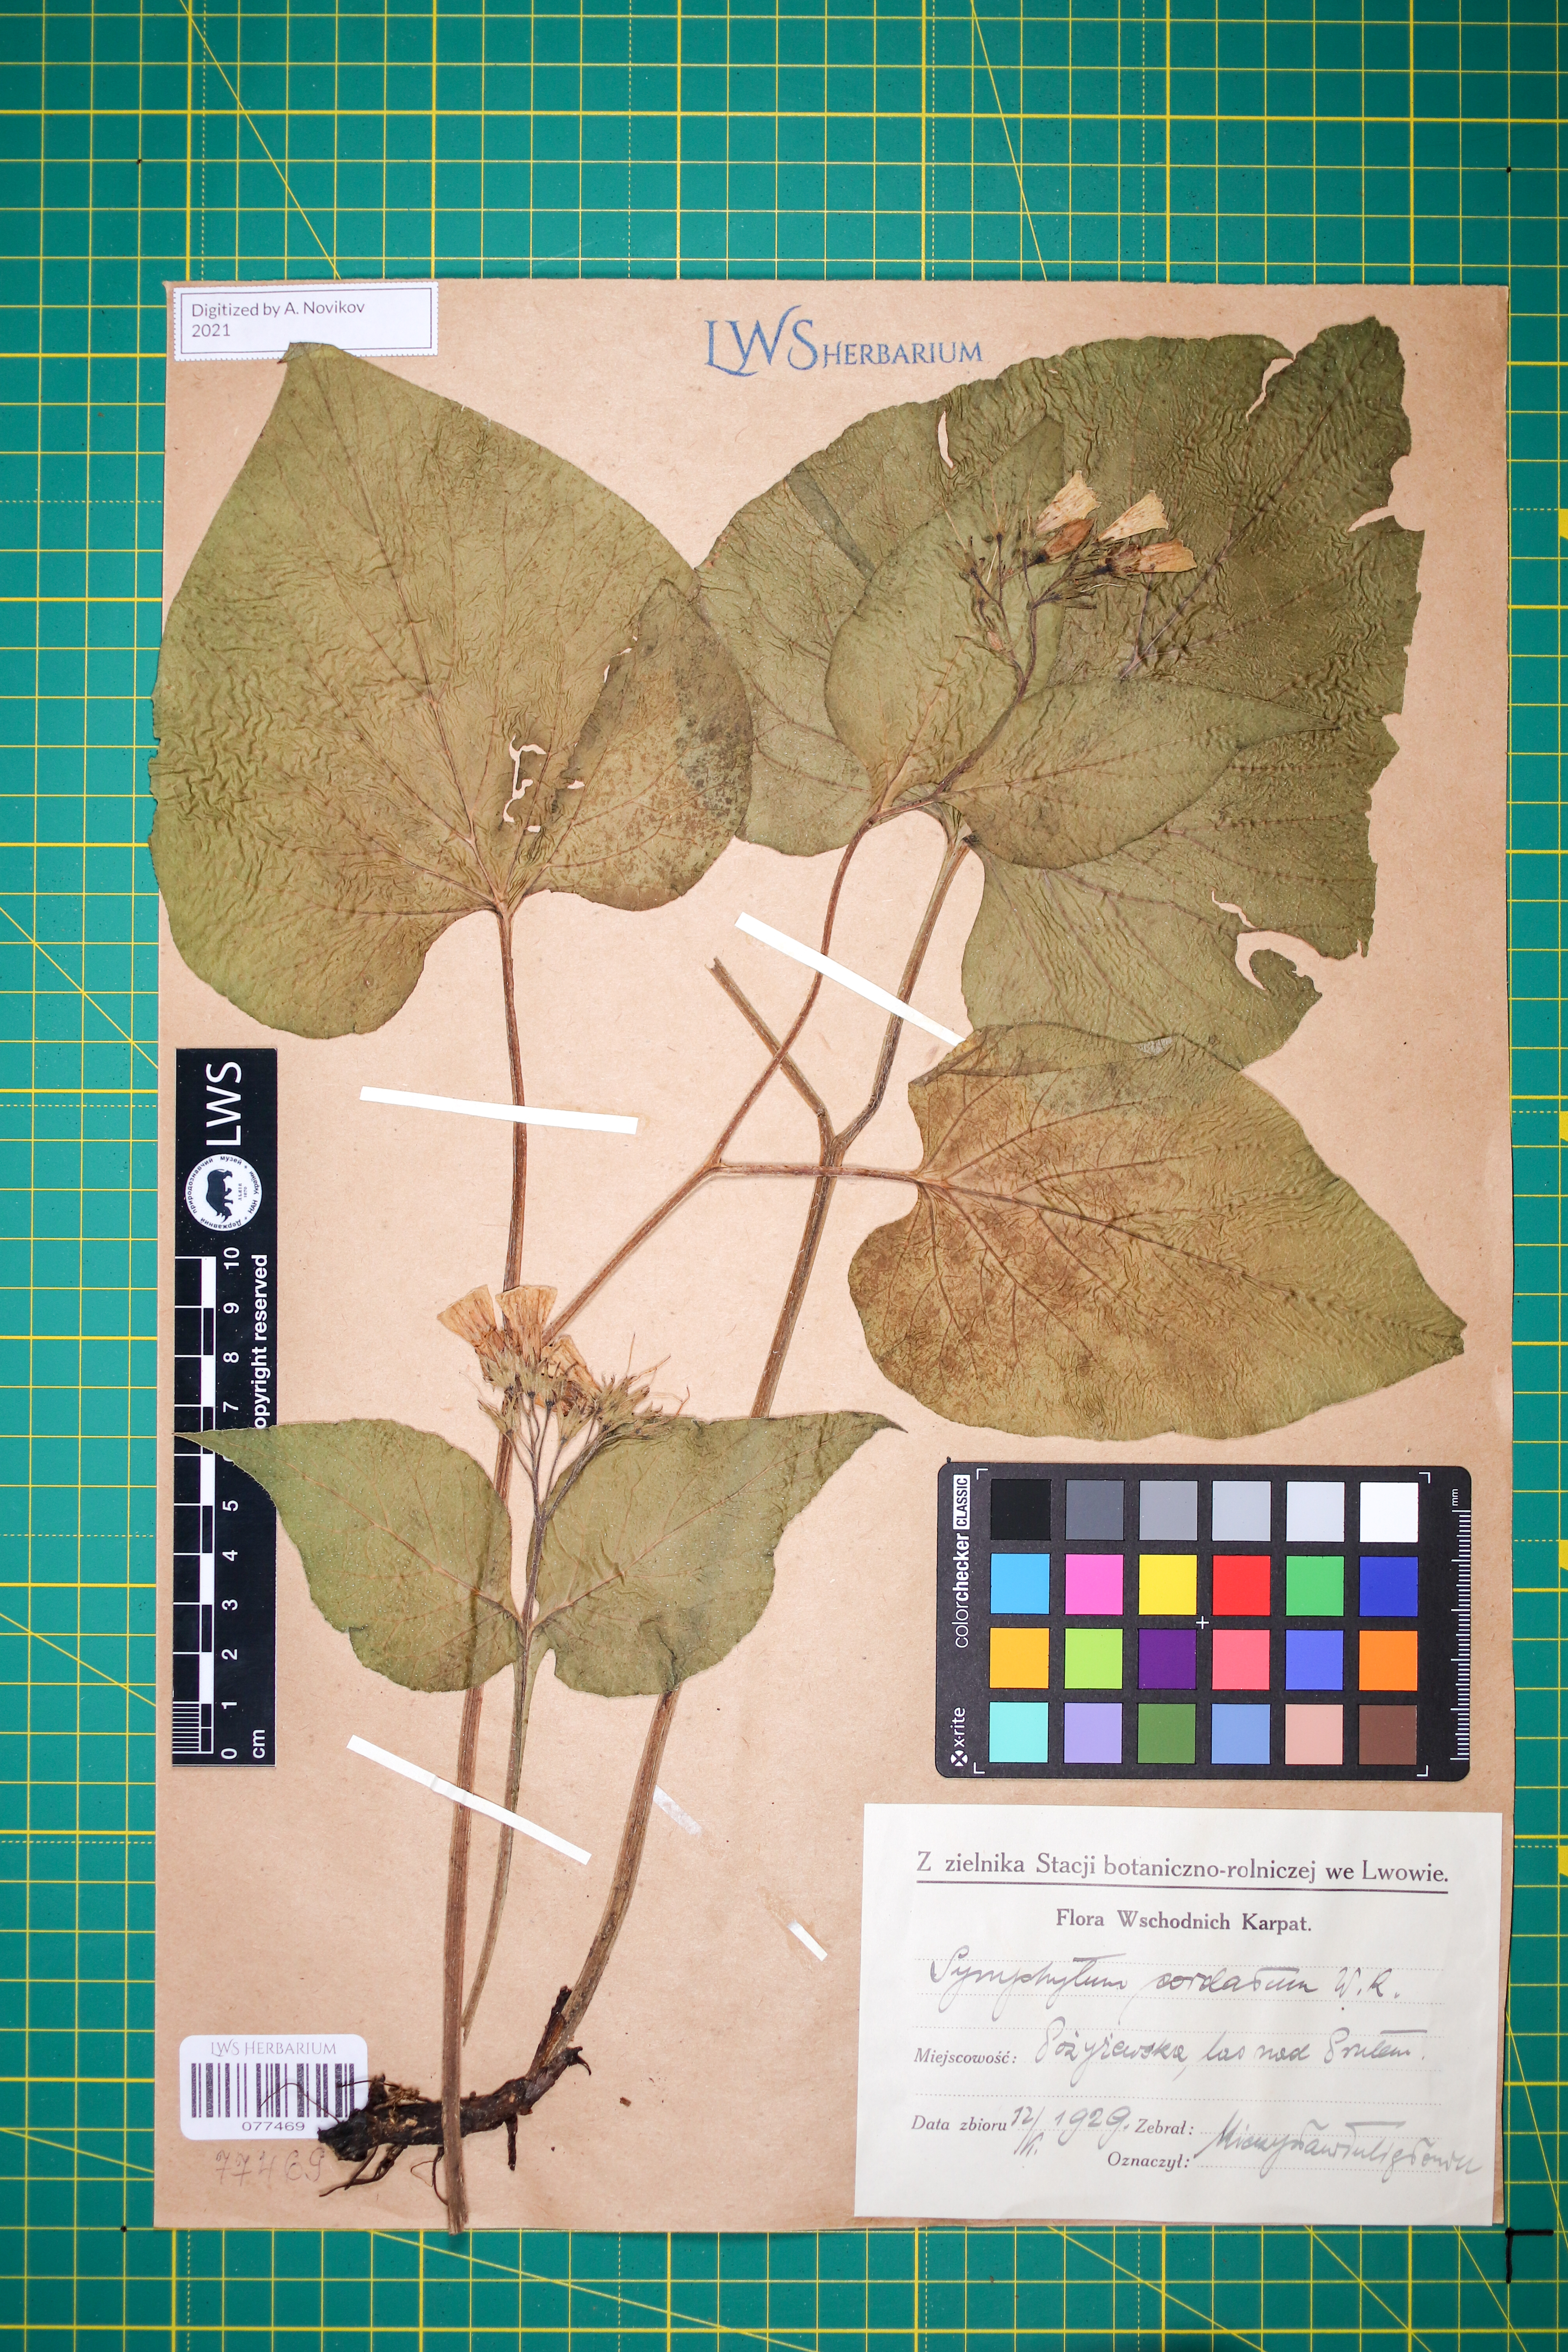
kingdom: Plantae
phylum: Tracheophyta
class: Magnoliopsida
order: Boraginales
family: Boraginaceae
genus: Symphytum
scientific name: Symphytum cordatum
